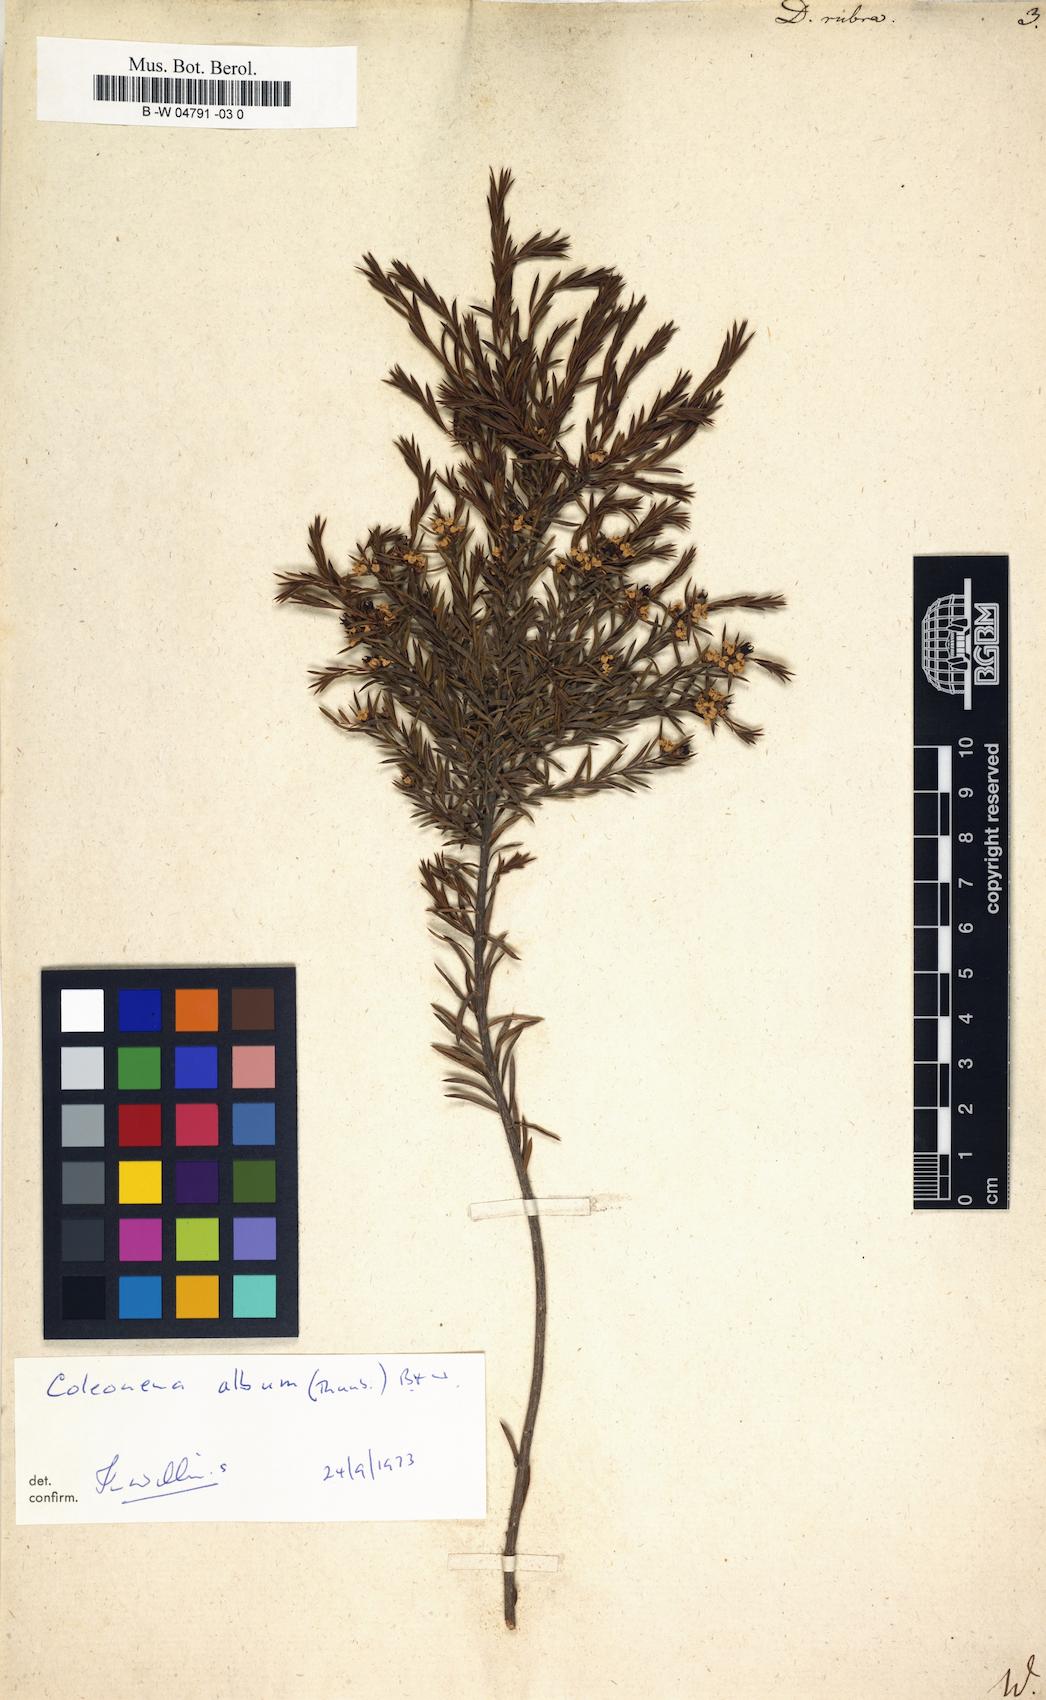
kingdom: Plantae
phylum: Tracheophyta
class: Magnoliopsida
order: Sapindales
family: Rutaceae
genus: Diosma
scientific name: Diosma hirsuta
